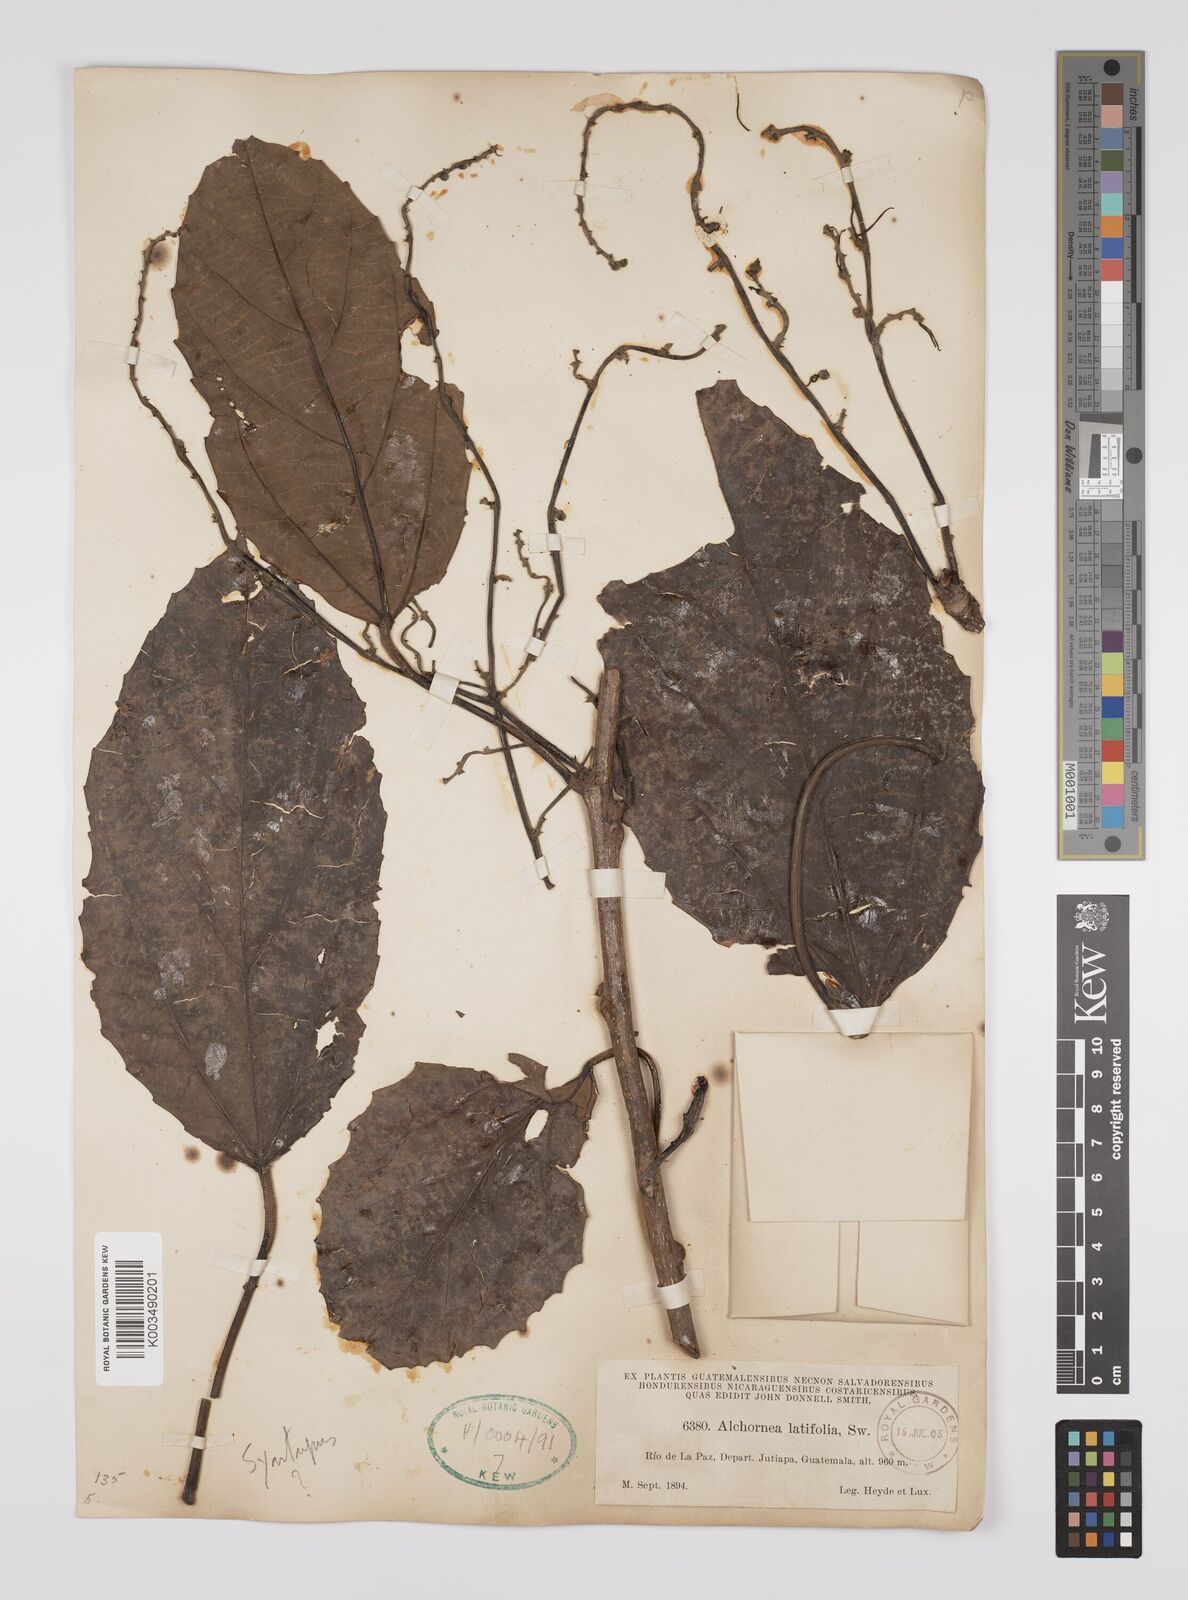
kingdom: Plantae
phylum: Tracheophyta
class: Magnoliopsida
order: Malpighiales
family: Euphorbiaceae
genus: Alchornea
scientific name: Alchornea latifolia
